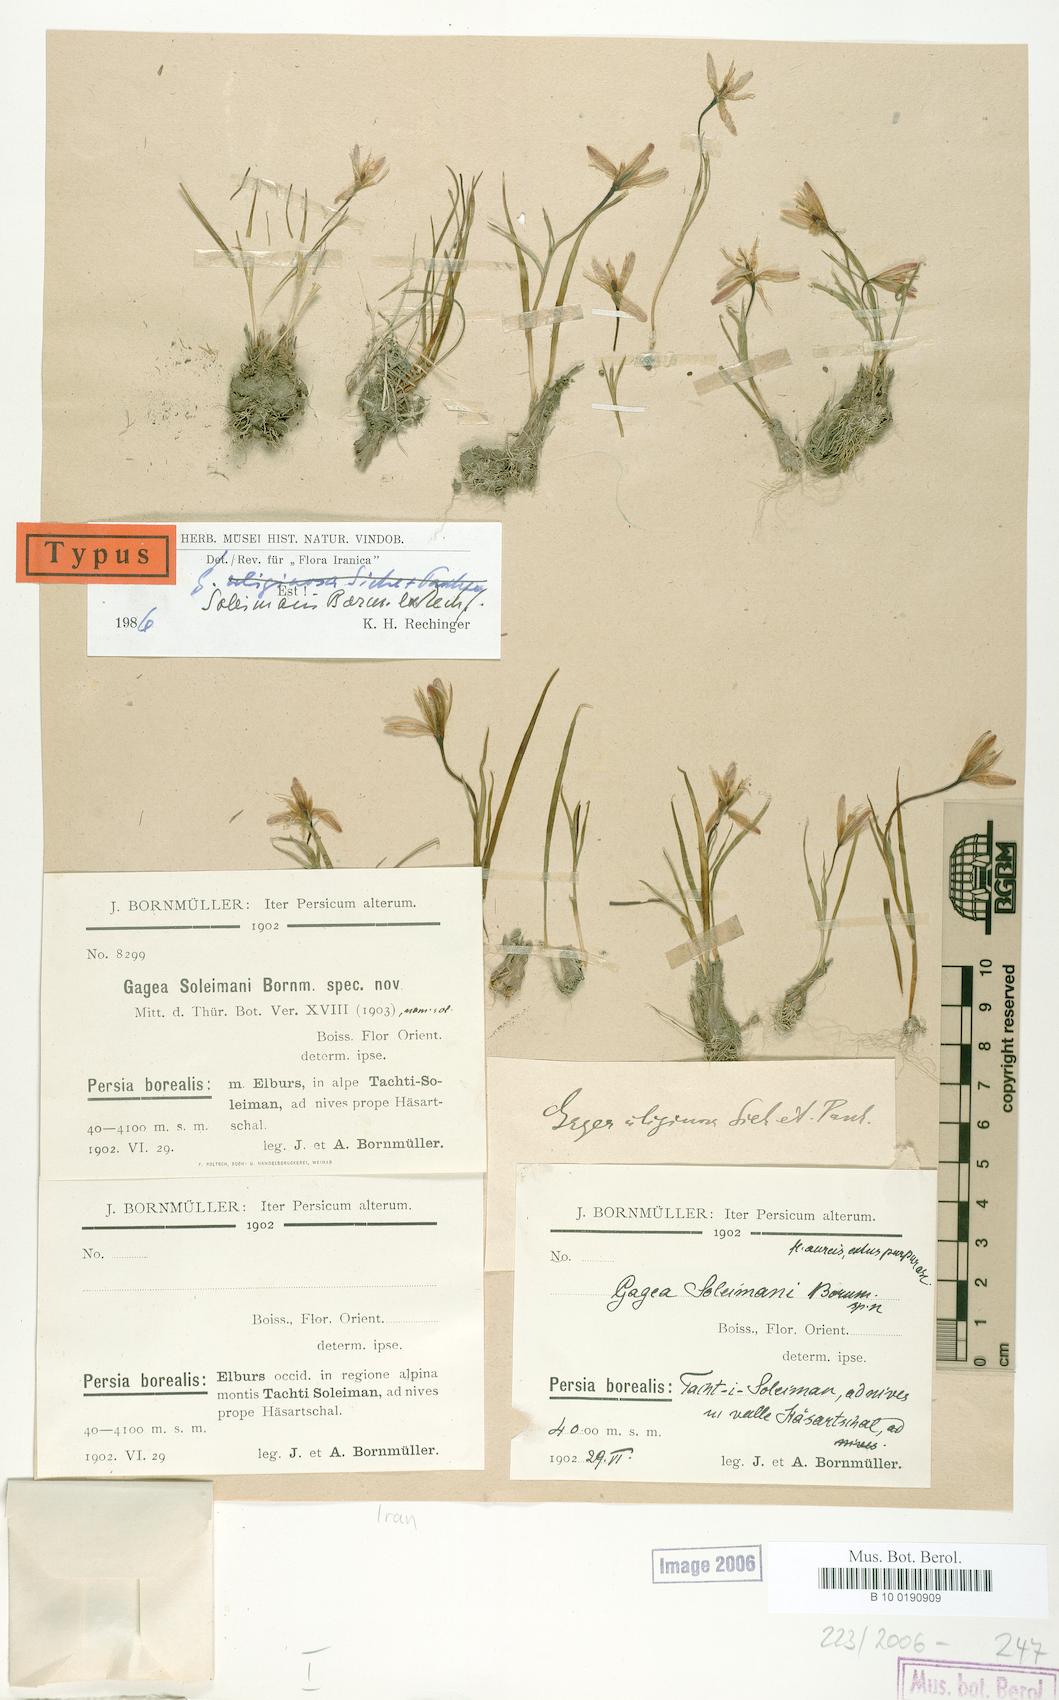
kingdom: Plantae
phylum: Tracheophyta
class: Liliopsida
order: Liliales
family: Liliaceae
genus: Gagea
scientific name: Gagea uliginosa
